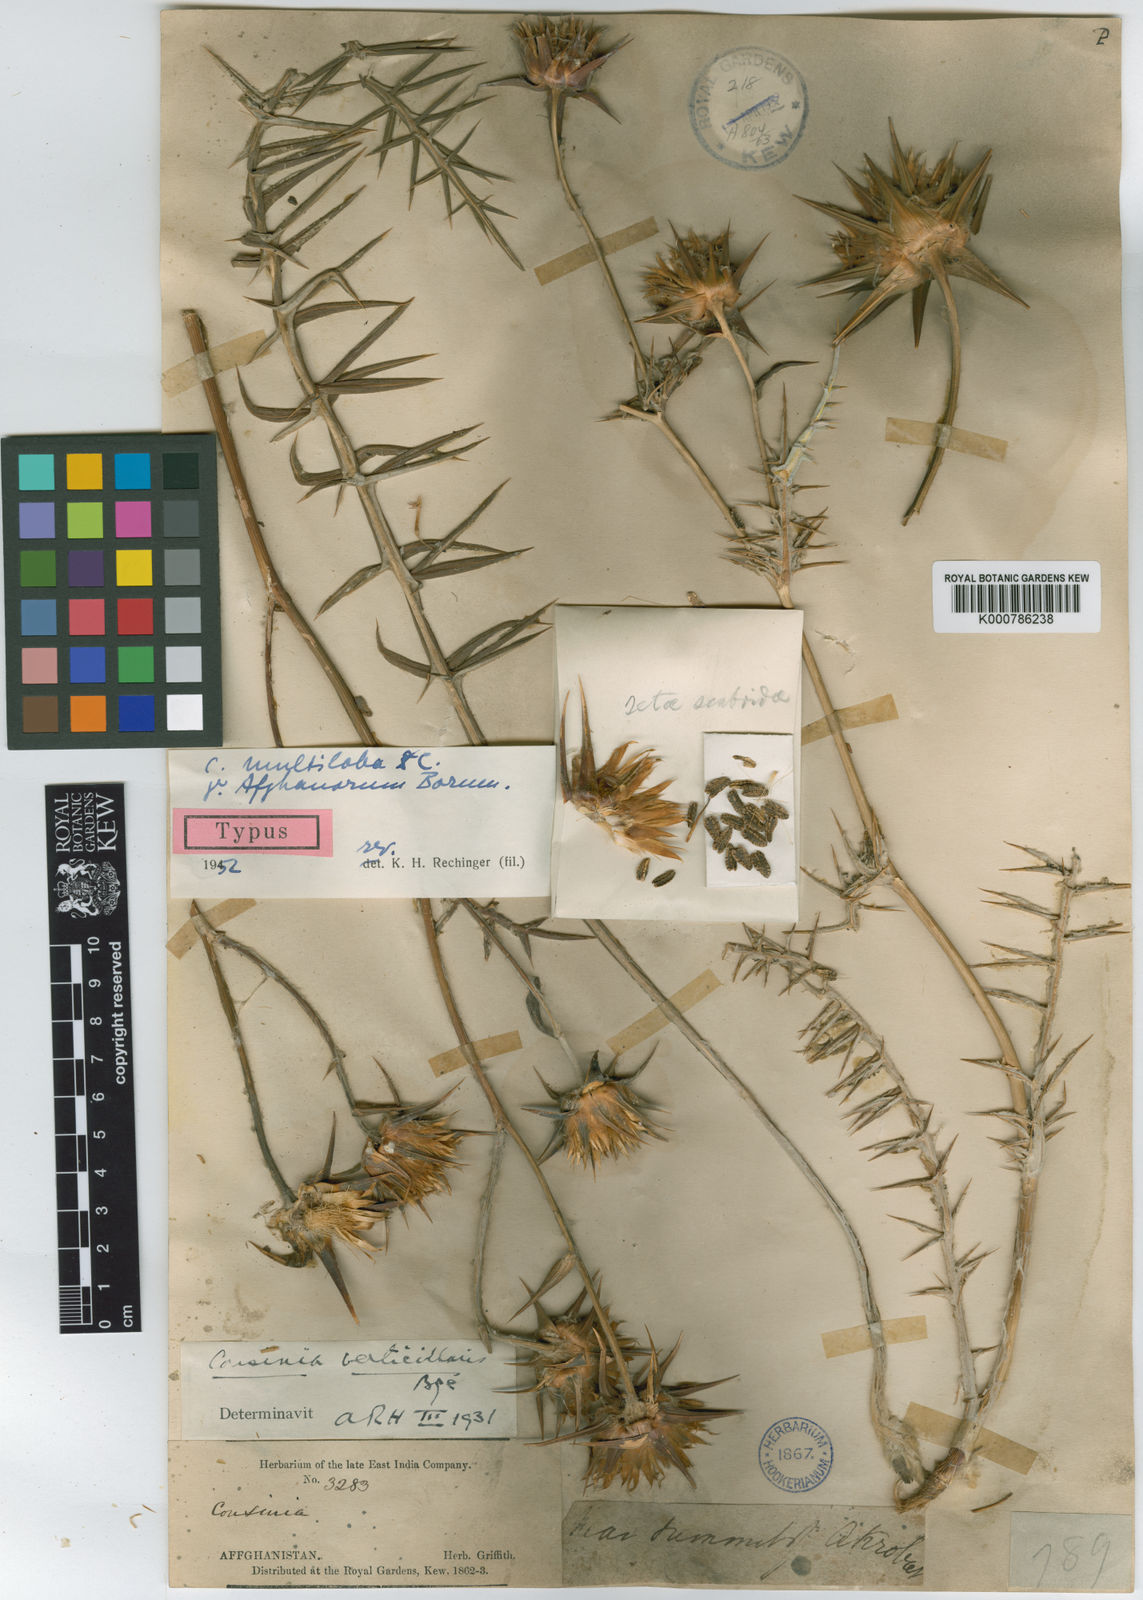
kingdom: Plantae
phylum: Tracheophyta
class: Magnoliopsida
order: Asterales
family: Asteraceae
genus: Cousinia
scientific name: Cousinia multiloba
